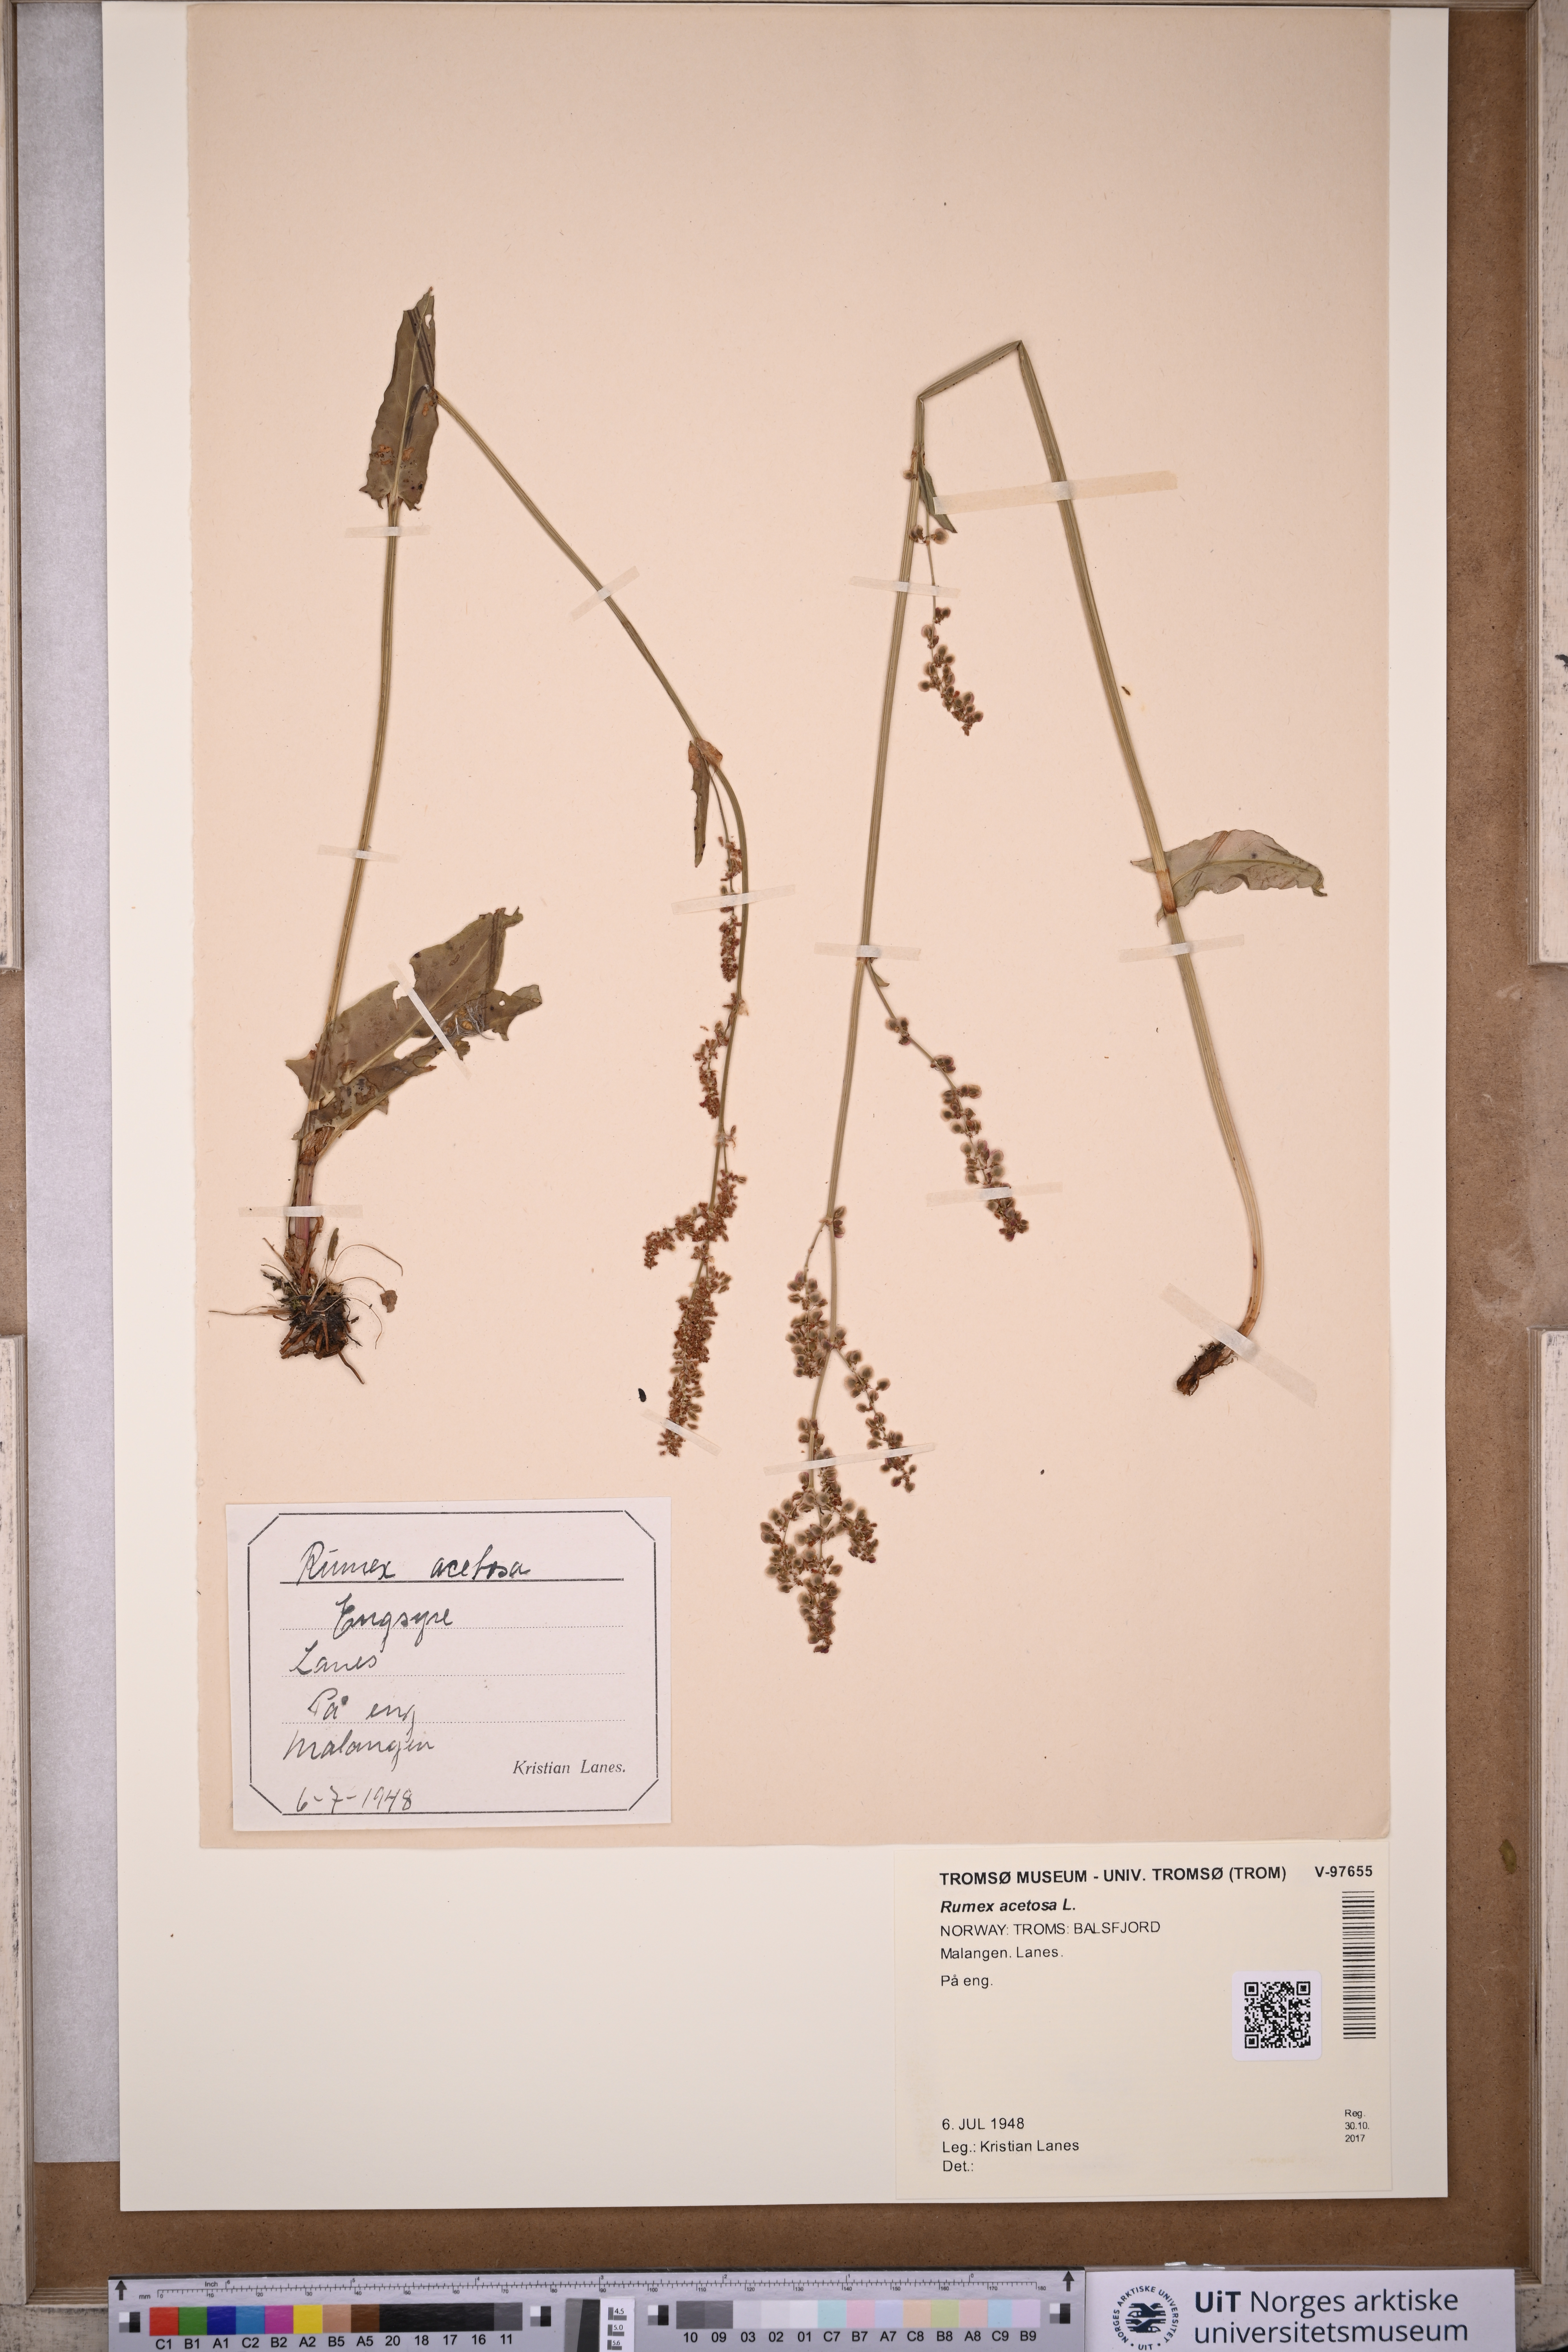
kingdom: Plantae
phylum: Tracheophyta
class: Magnoliopsida
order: Caryophyllales
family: Polygonaceae
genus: Rumex
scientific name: Rumex acetosa
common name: Garden sorrel
